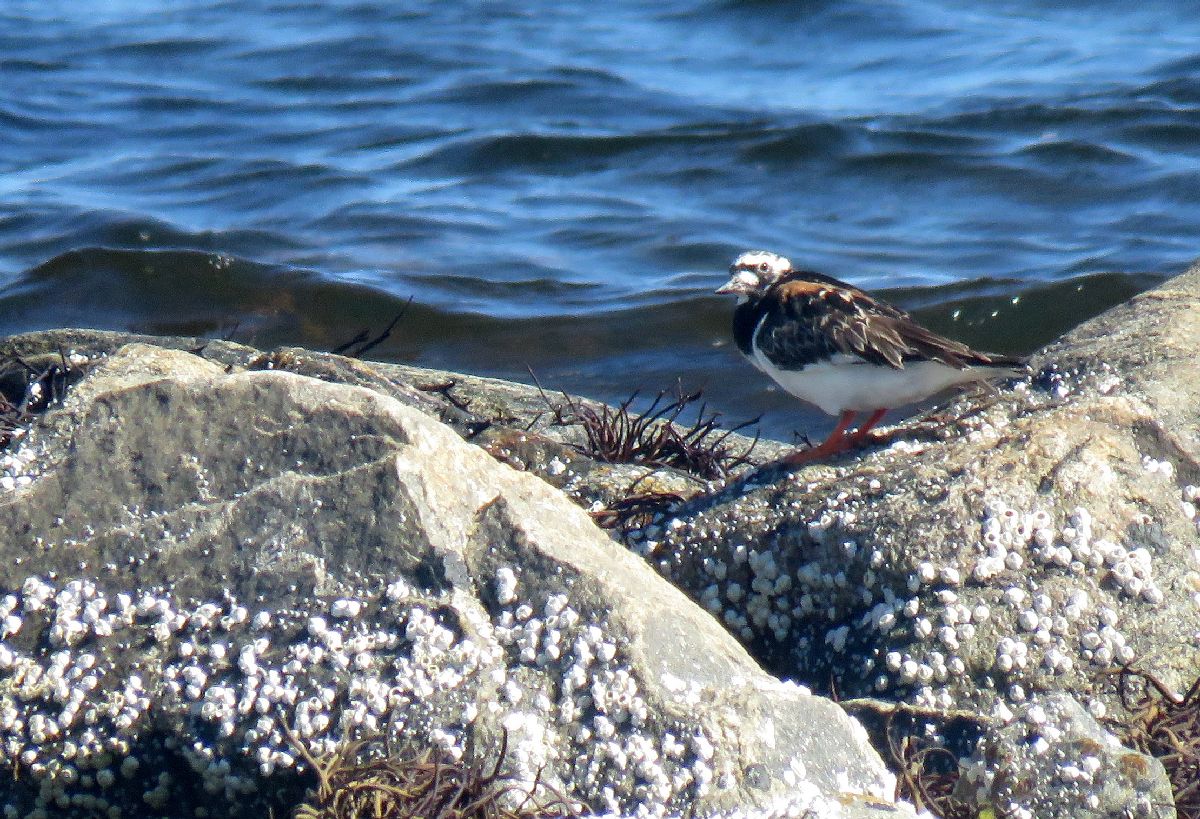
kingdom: Animalia
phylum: Chordata
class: Aves
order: Charadriiformes
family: Scolopacidae
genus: Arenaria
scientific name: Arenaria interpres
